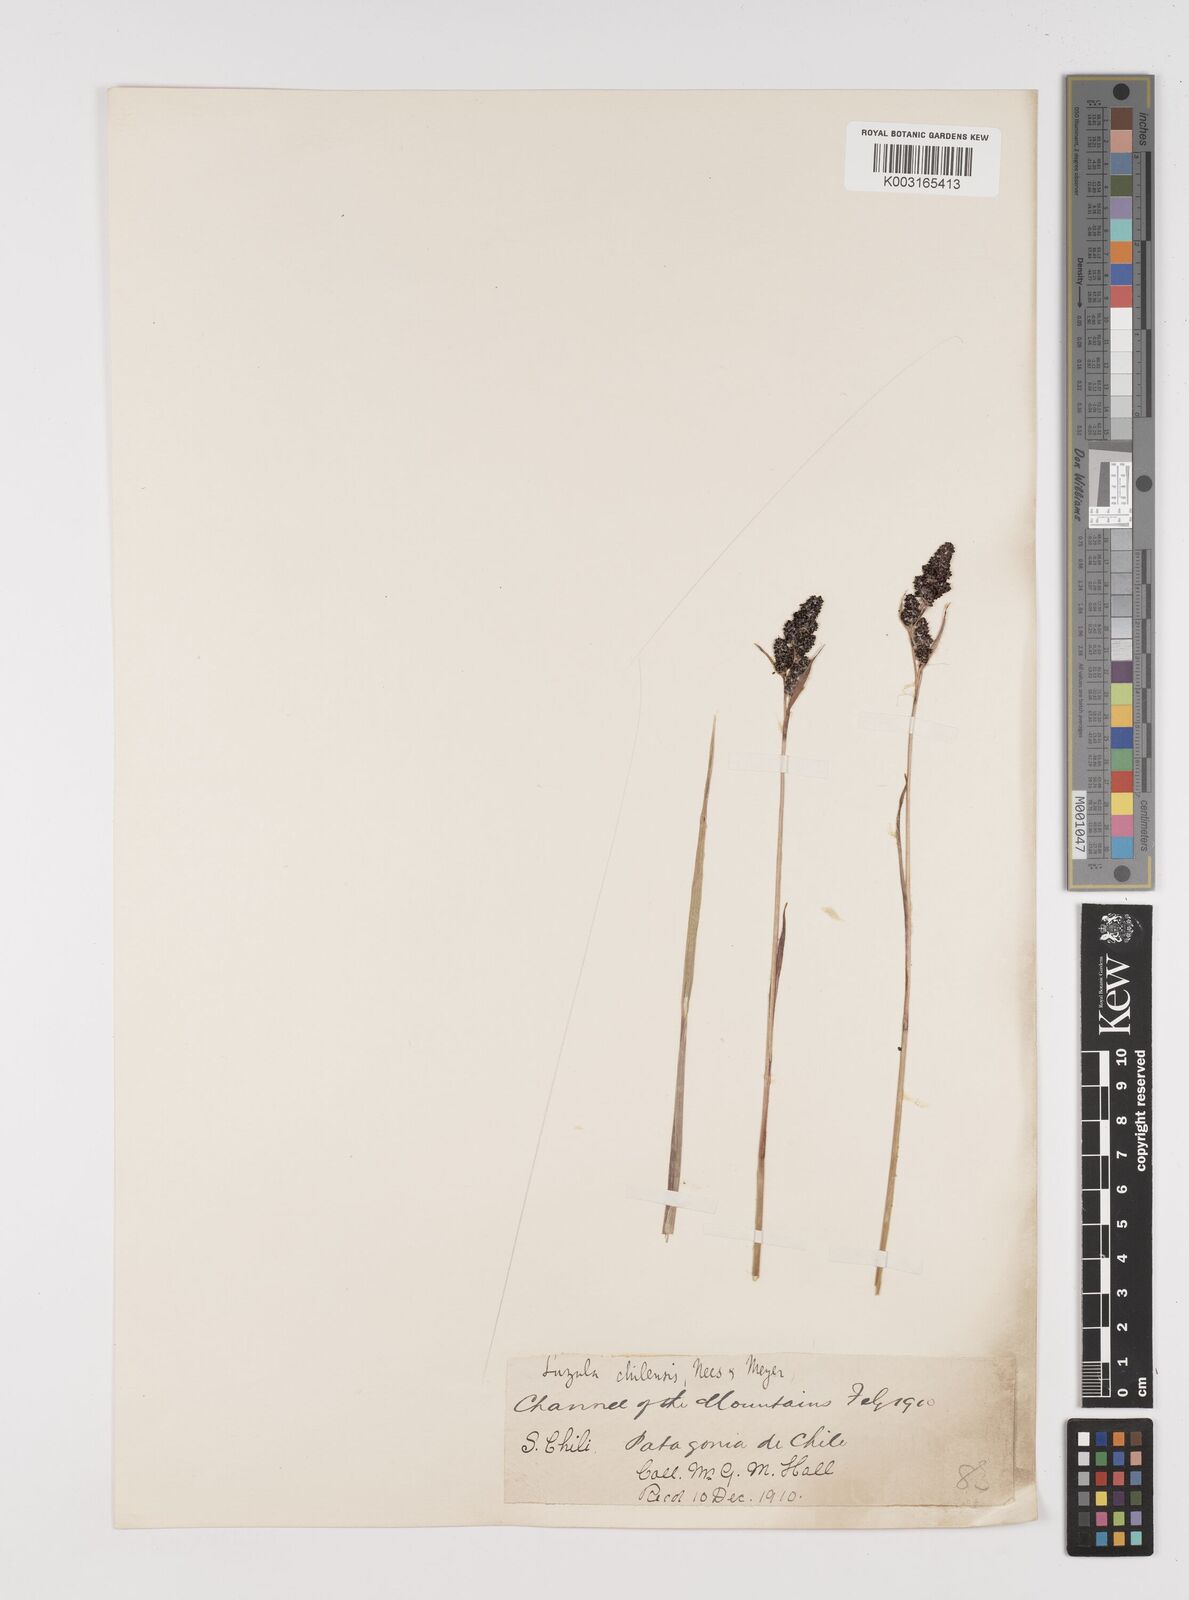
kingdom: Plantae
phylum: Tracheophyta
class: Liliopsida
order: Poales
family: Juncaceae
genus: Luzula
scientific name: Luzula racemosa
